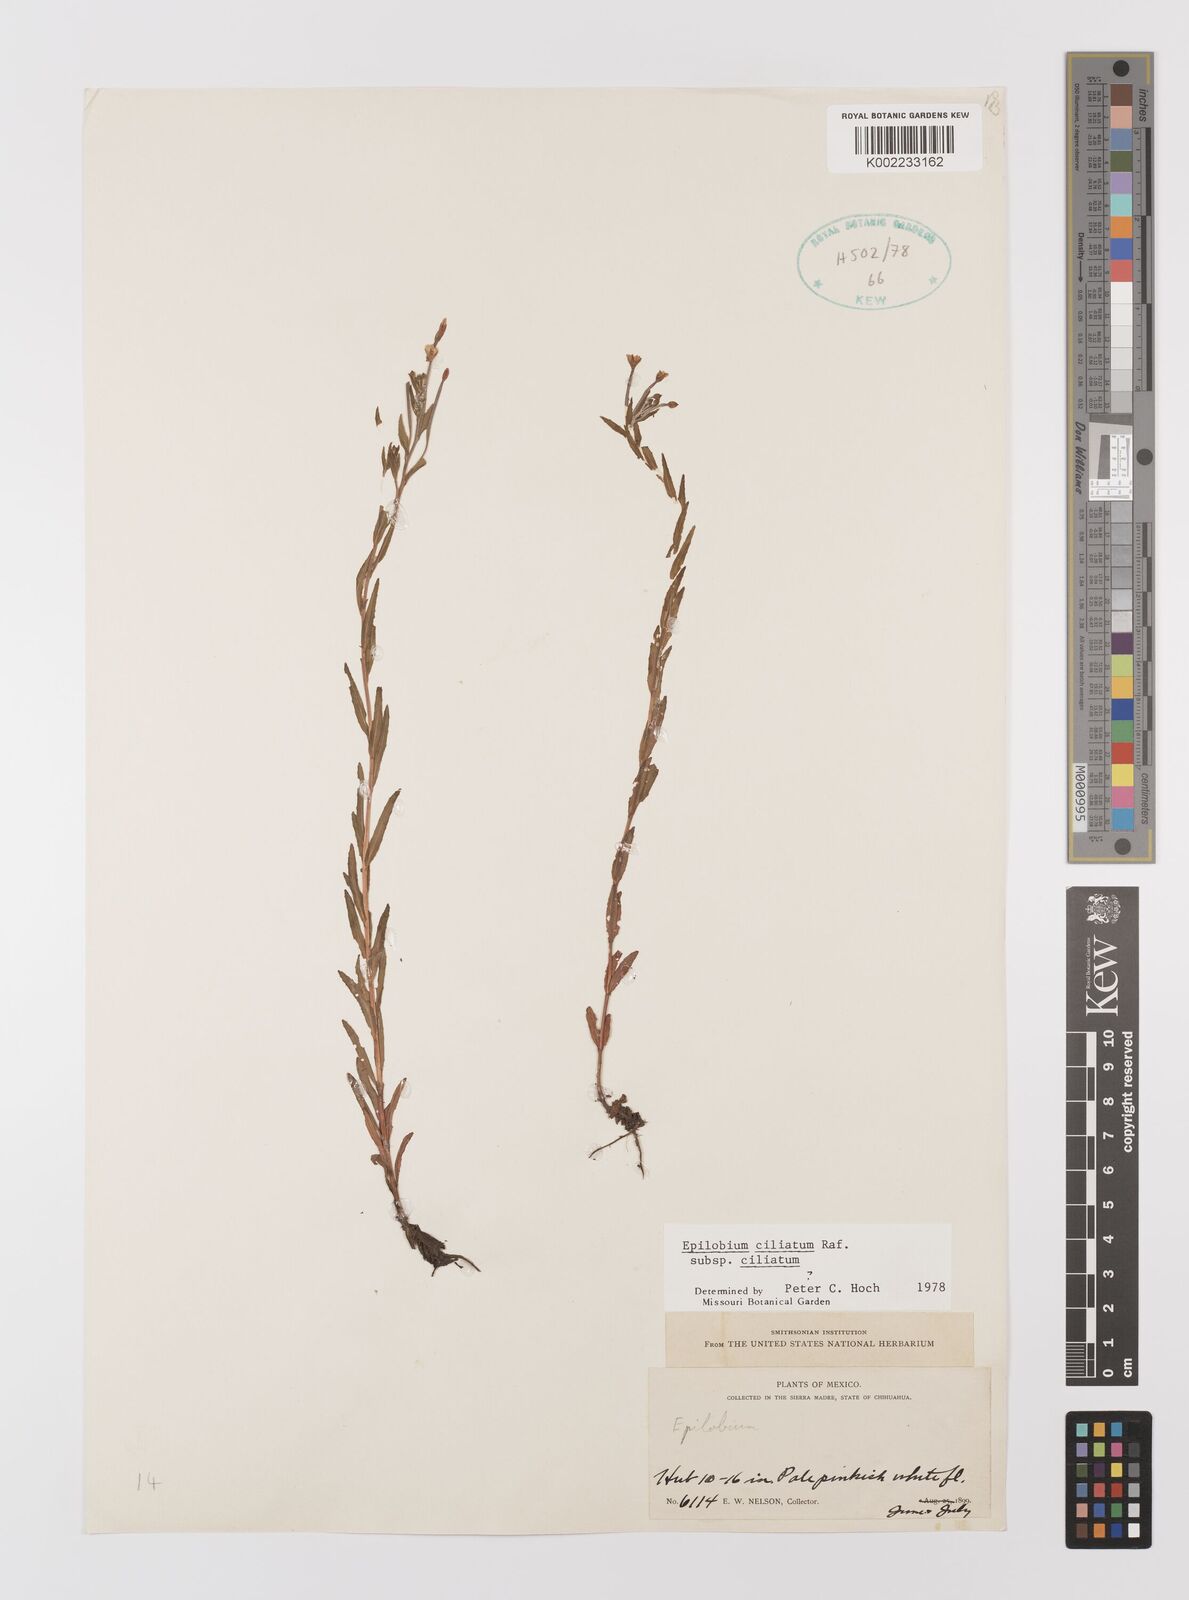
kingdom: Plantae
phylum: Tracheophyta
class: Magnoliopsida
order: Myrtales
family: Onagraceae
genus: Epilobium
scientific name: Epilobium ciliatum
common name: American willowherb
